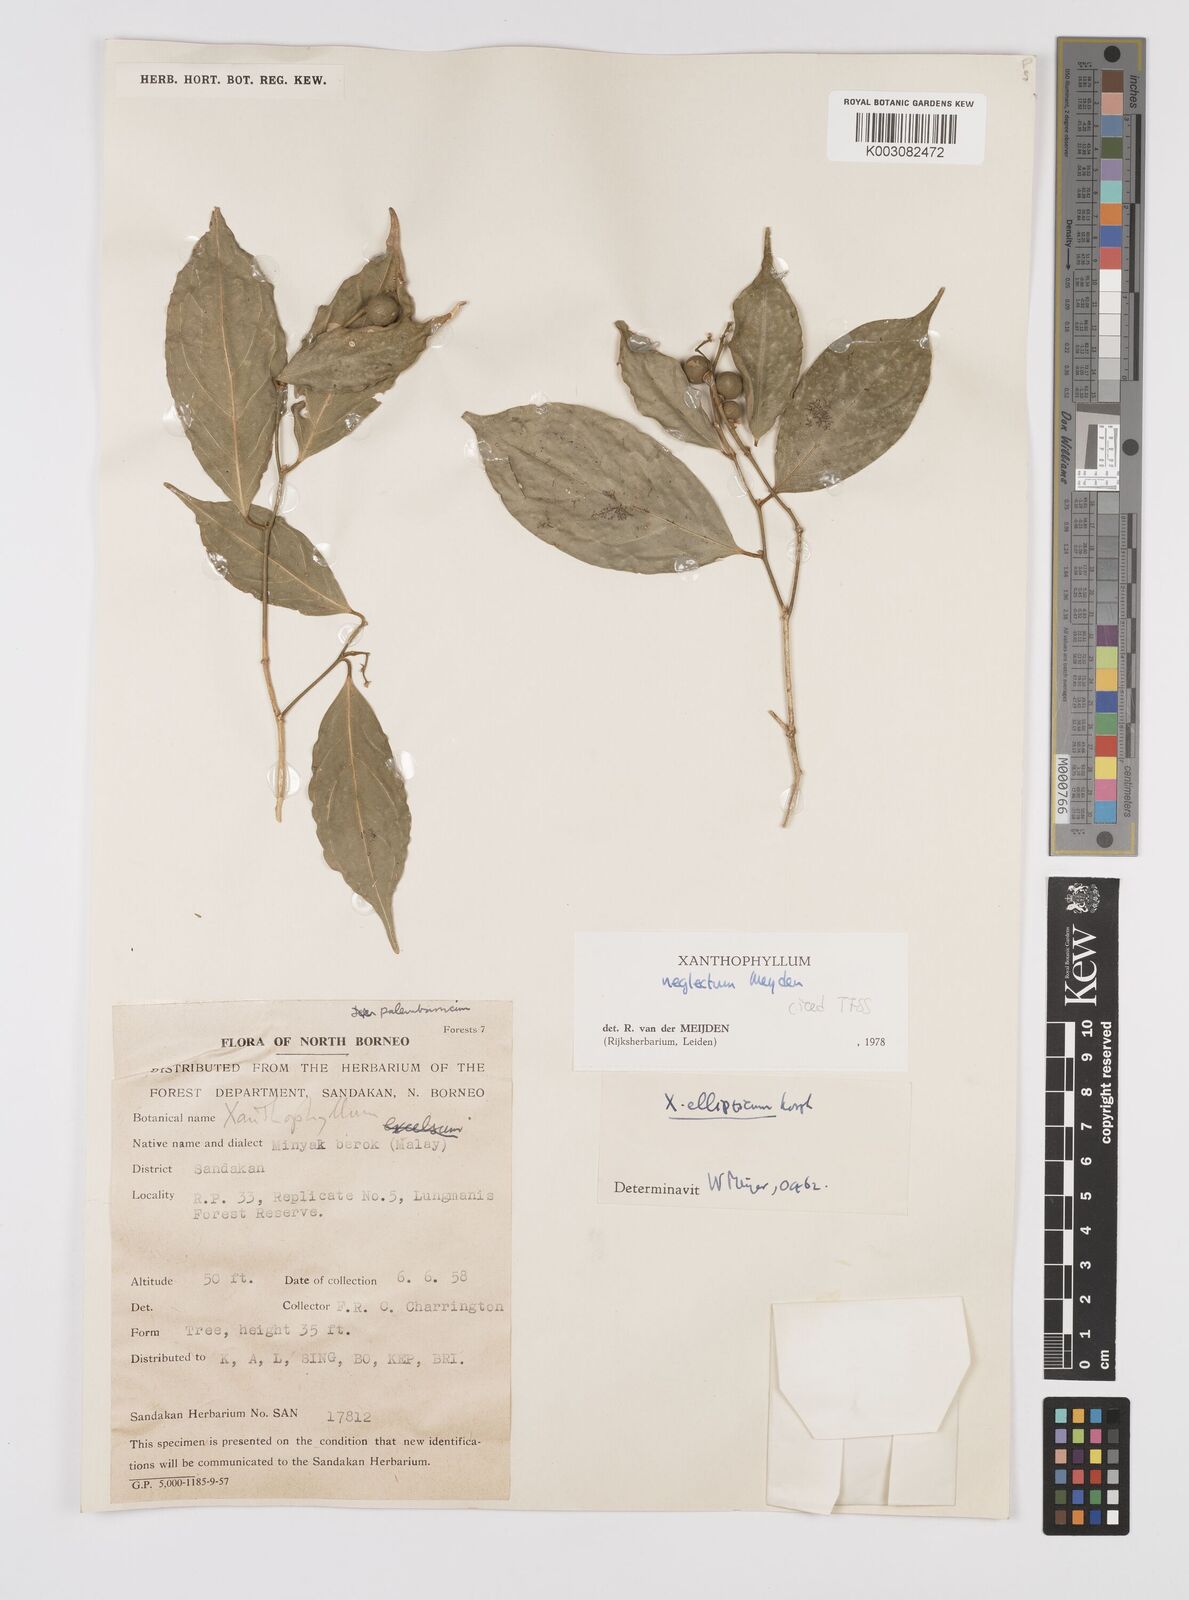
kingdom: Plantae
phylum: Tracheophyta
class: Magnoliopsida
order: Fabales
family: Polygalaceae
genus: Xanthophyllum
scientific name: Xanthophyllum neglectum
